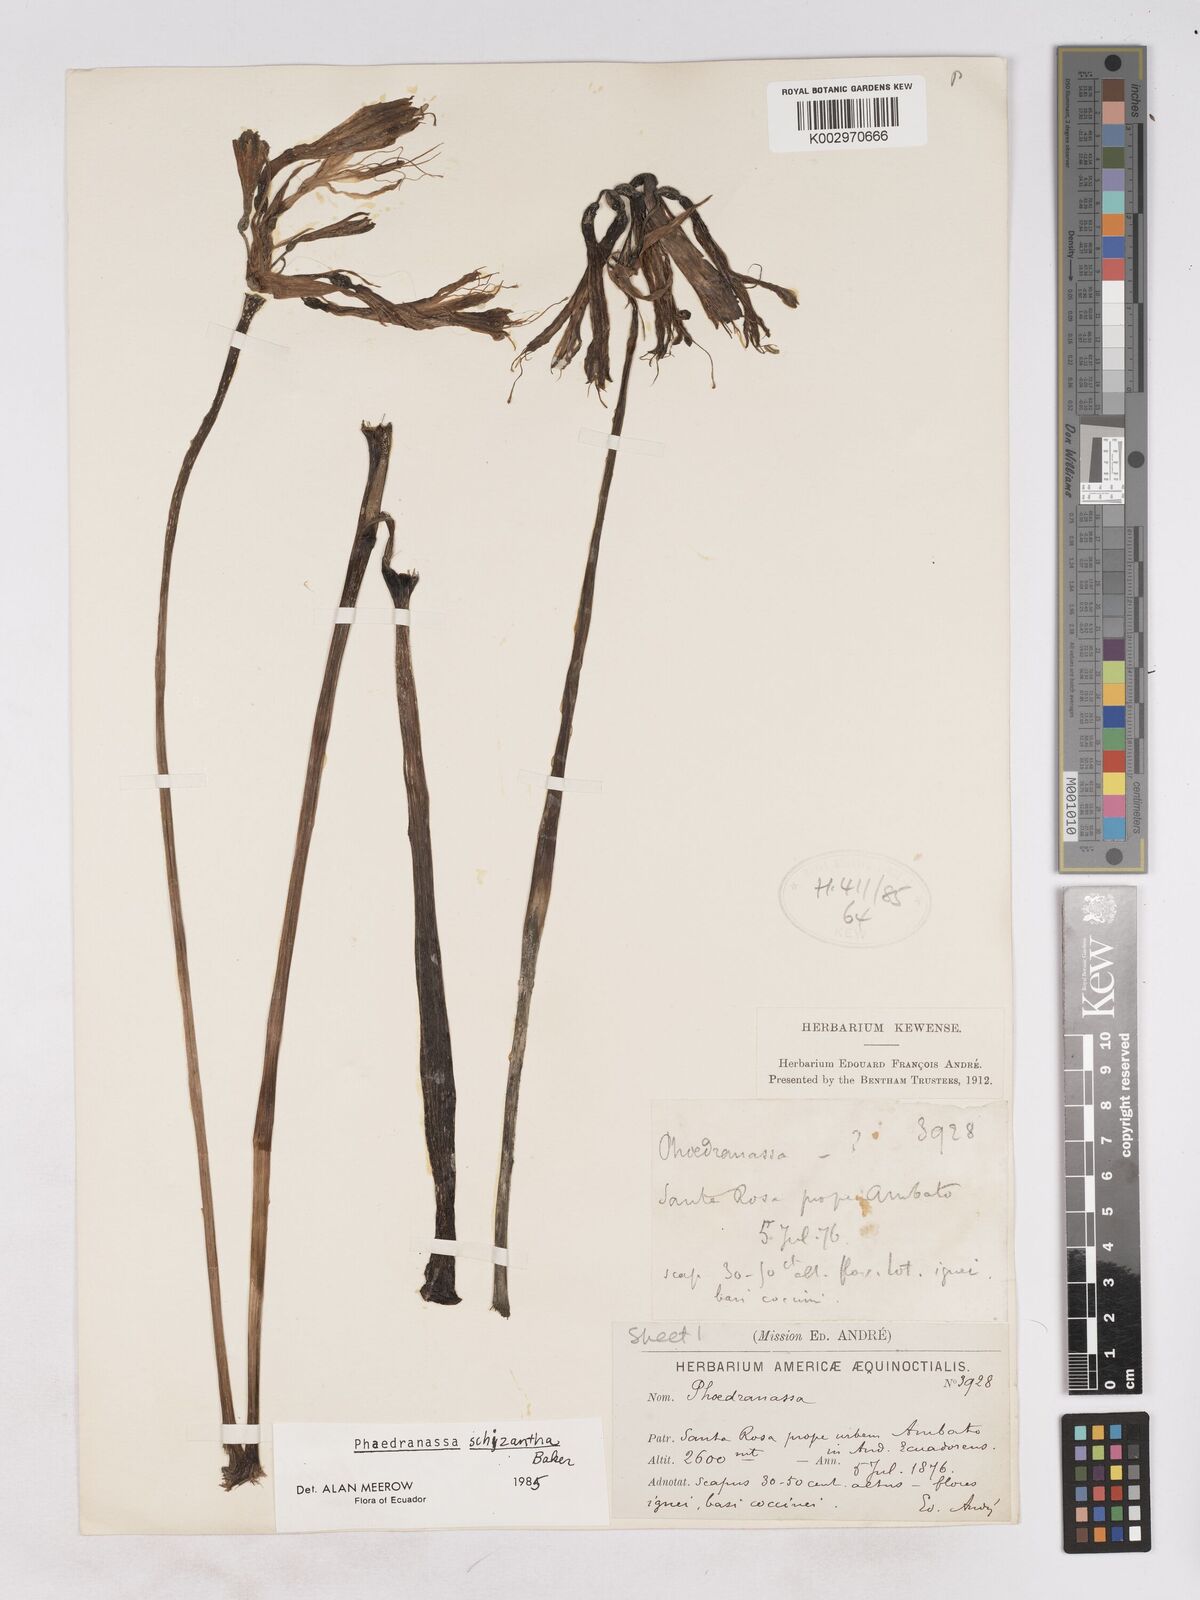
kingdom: Plantae
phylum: Tracheophyta
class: Liliopsida
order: Asparagales
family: Amaryllidaceae
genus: Phaedranassa
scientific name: Phaedranassa schizantha
